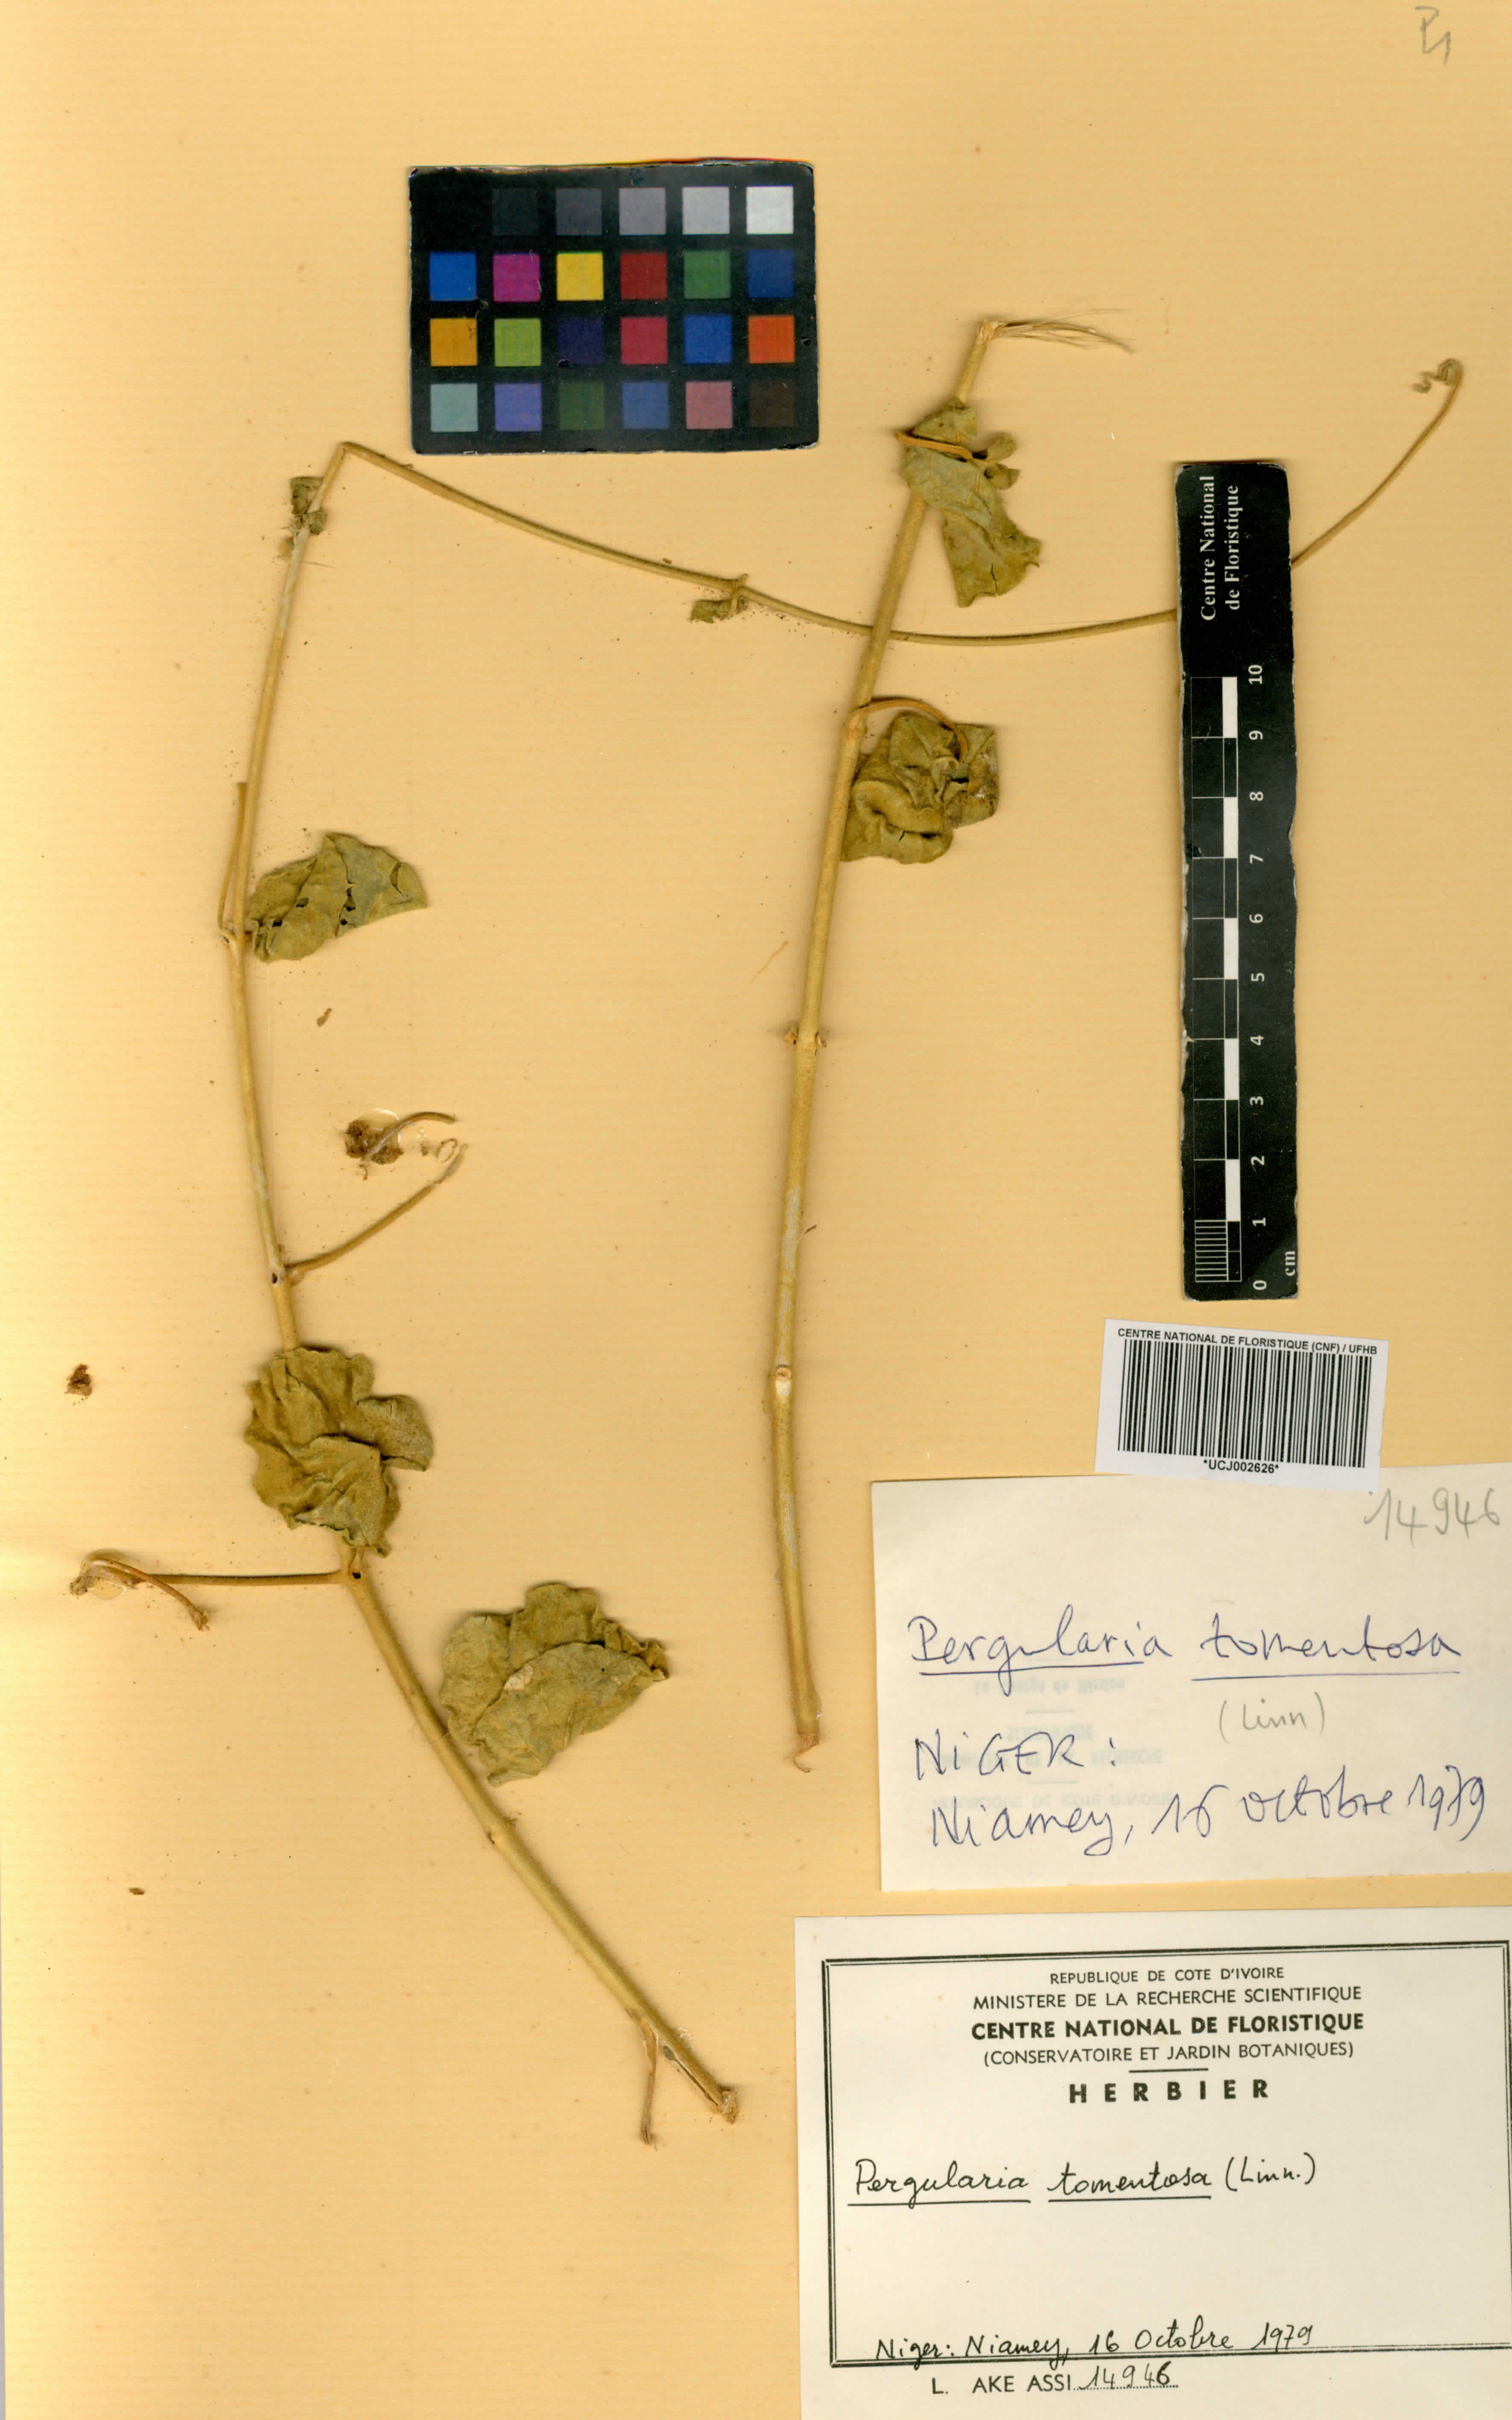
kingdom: Plantae
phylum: Tracheophyta
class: Magnoliopsida
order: Gentianales
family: Apocynaceae
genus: Pergularia
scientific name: Pergularia tomentosa
